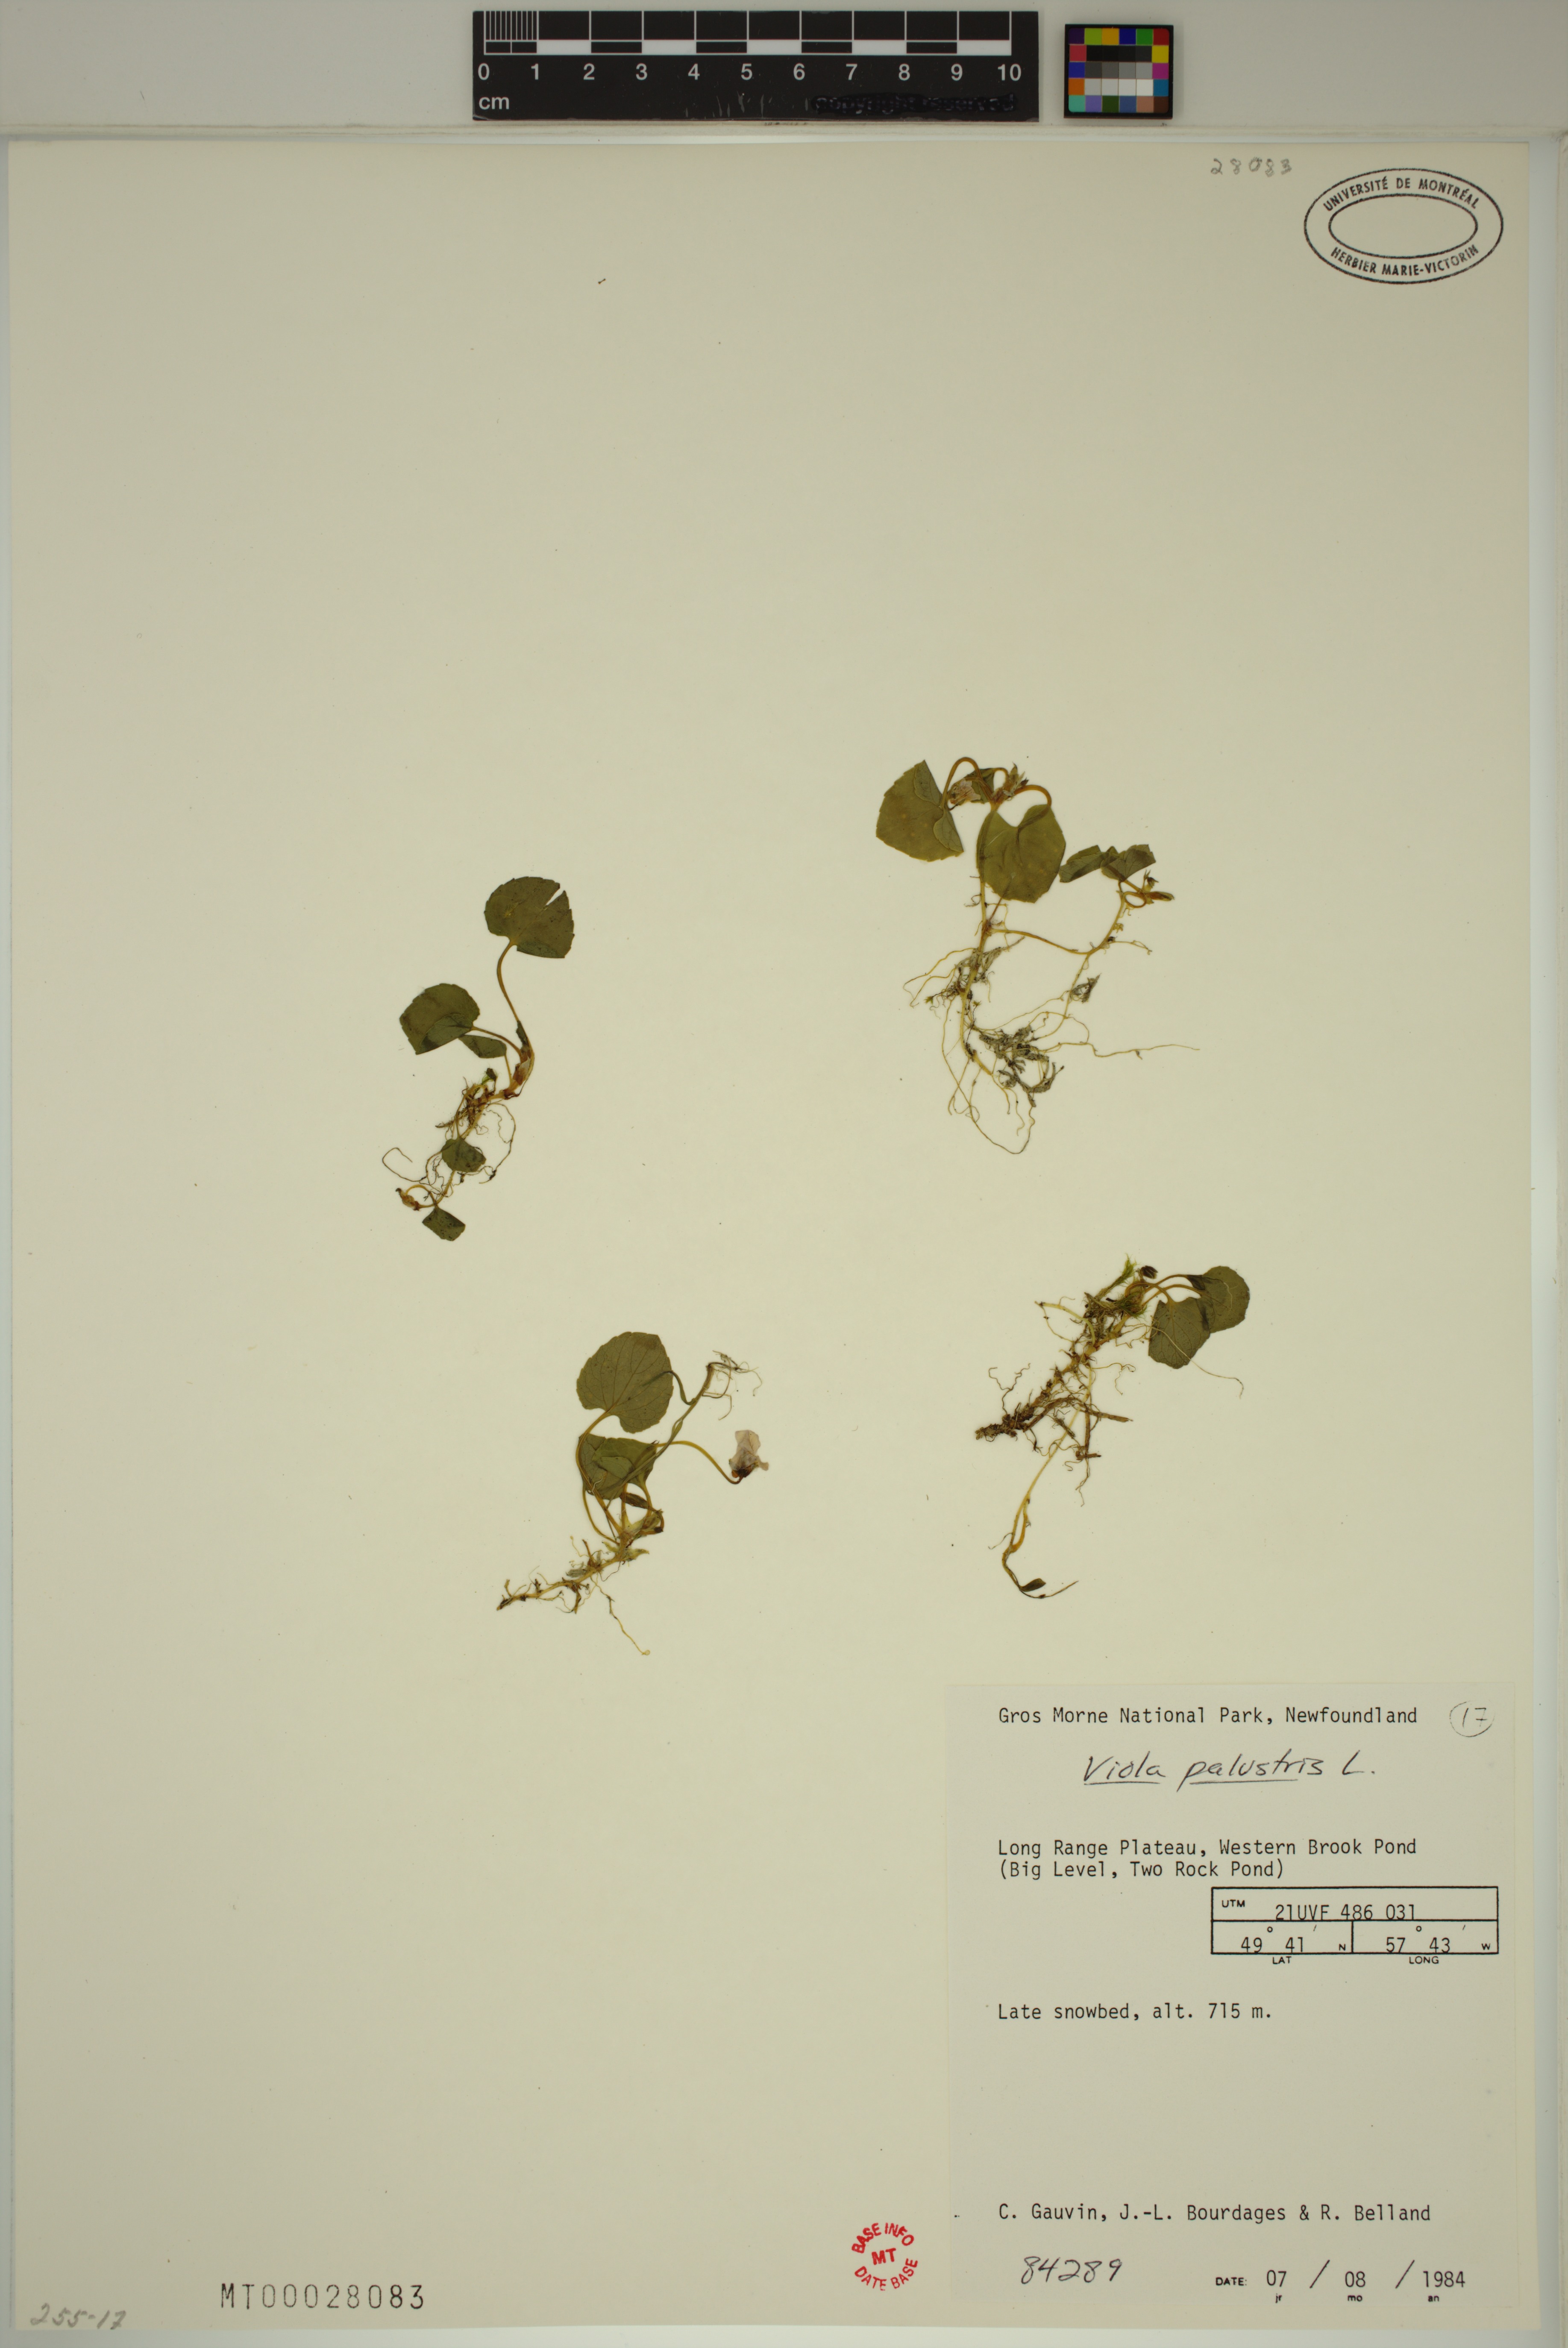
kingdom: Plantae
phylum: Tracheophyta
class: Magnoliopsida
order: Malpighiales
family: Violaceae
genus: Viola
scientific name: Viola palustris
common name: Marsh violet
